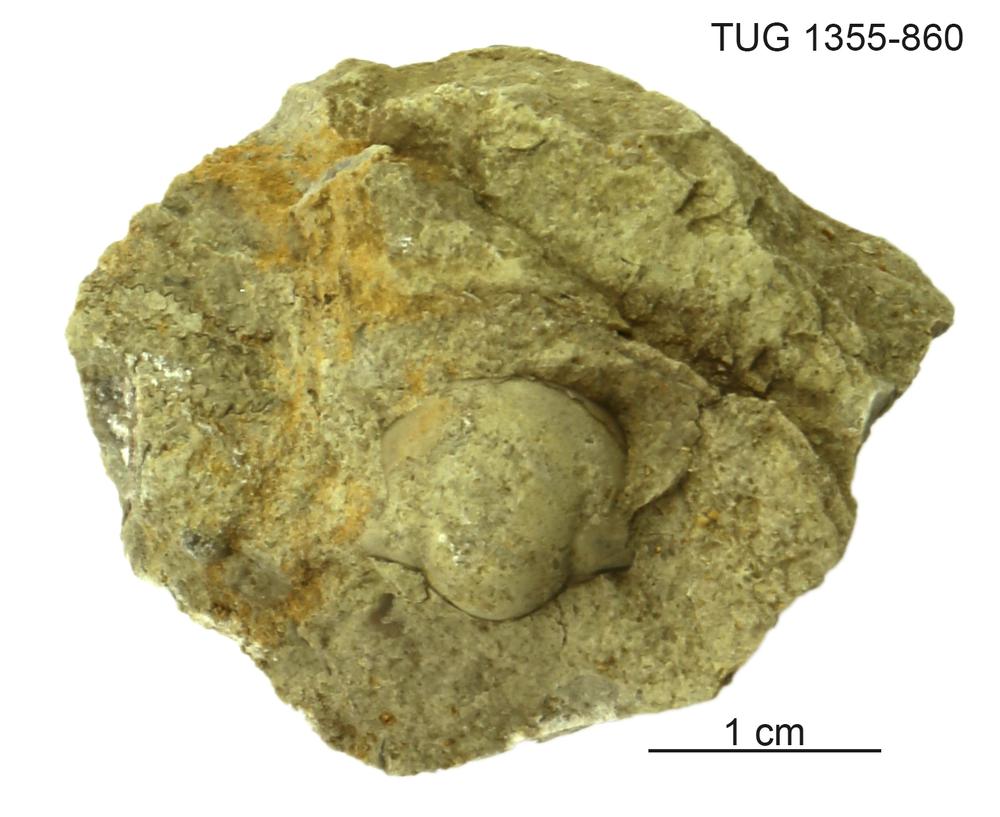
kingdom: Animalia
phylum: Arthropoda
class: Trilobita
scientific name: Trilobita
